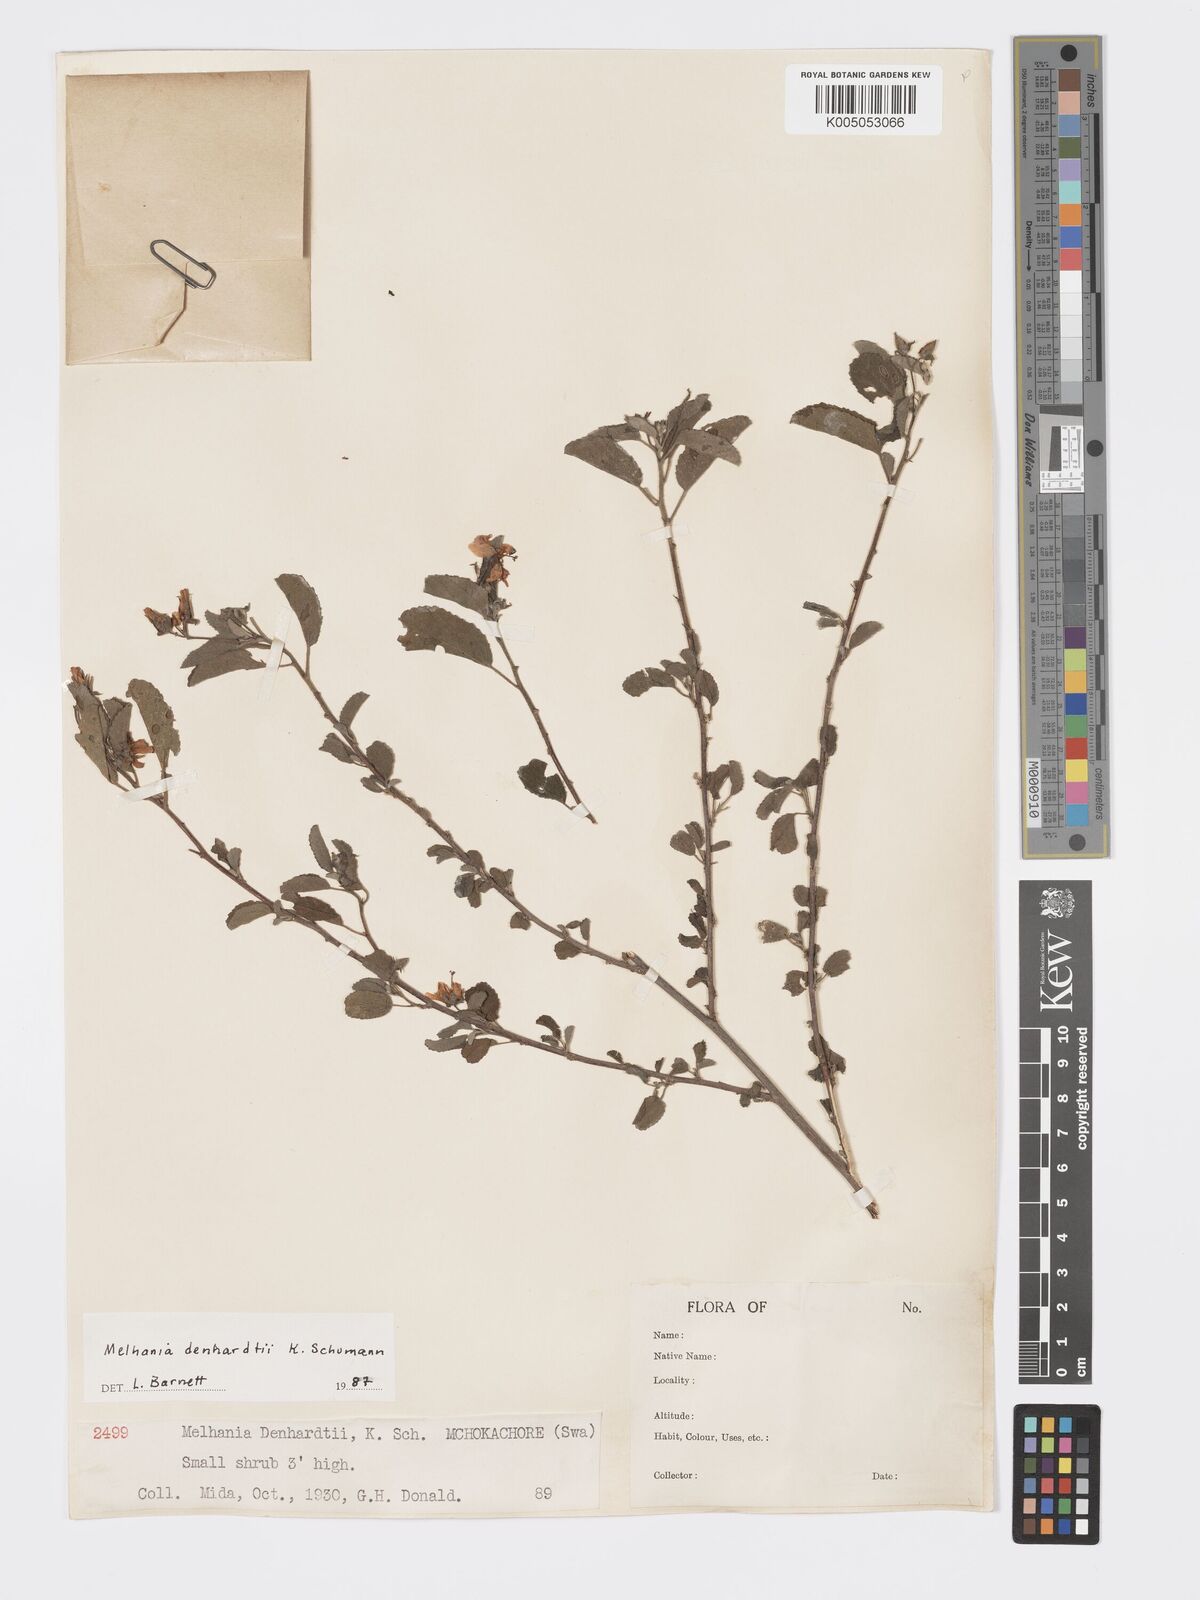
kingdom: Plantae
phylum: Tracheophyta
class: Magnoliopsida
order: Malvales
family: Malvaceae
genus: Melhania
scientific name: Melhania dehnhardtii
